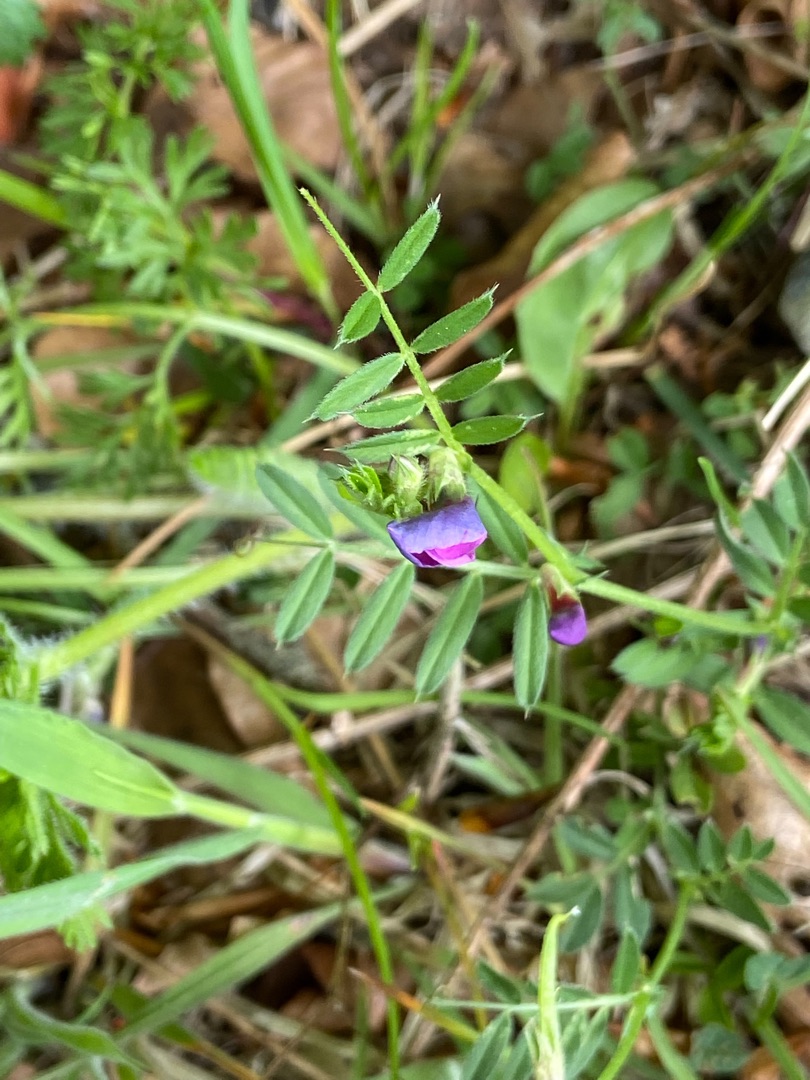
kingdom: Plantae
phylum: Tracheophyta
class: Magnoliopsida
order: Fabales
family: Fabaceae
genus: Vicia
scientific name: Vicia sativa
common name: Foder-vikke
